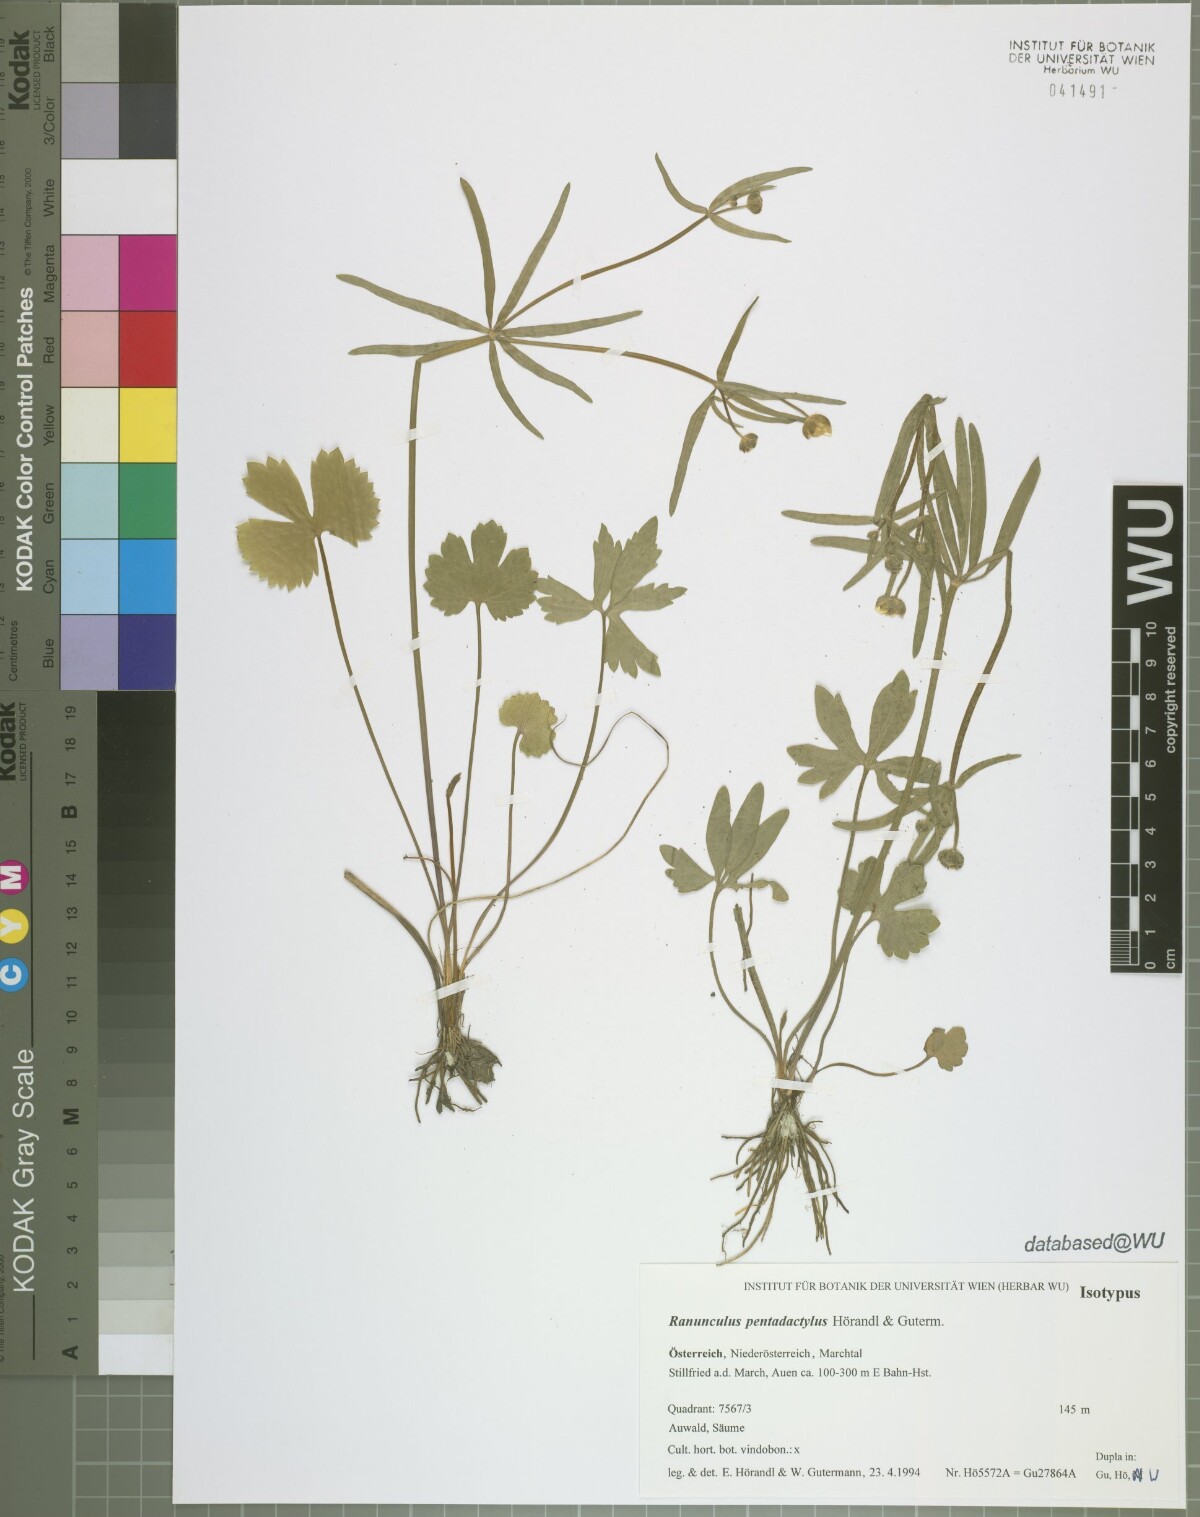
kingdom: Plantae
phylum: Tracheophyta
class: Magnoliopsida
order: Ranunculales
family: Ranunculaceae
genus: Ranunculus
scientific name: Ranunculus pentadactylus
